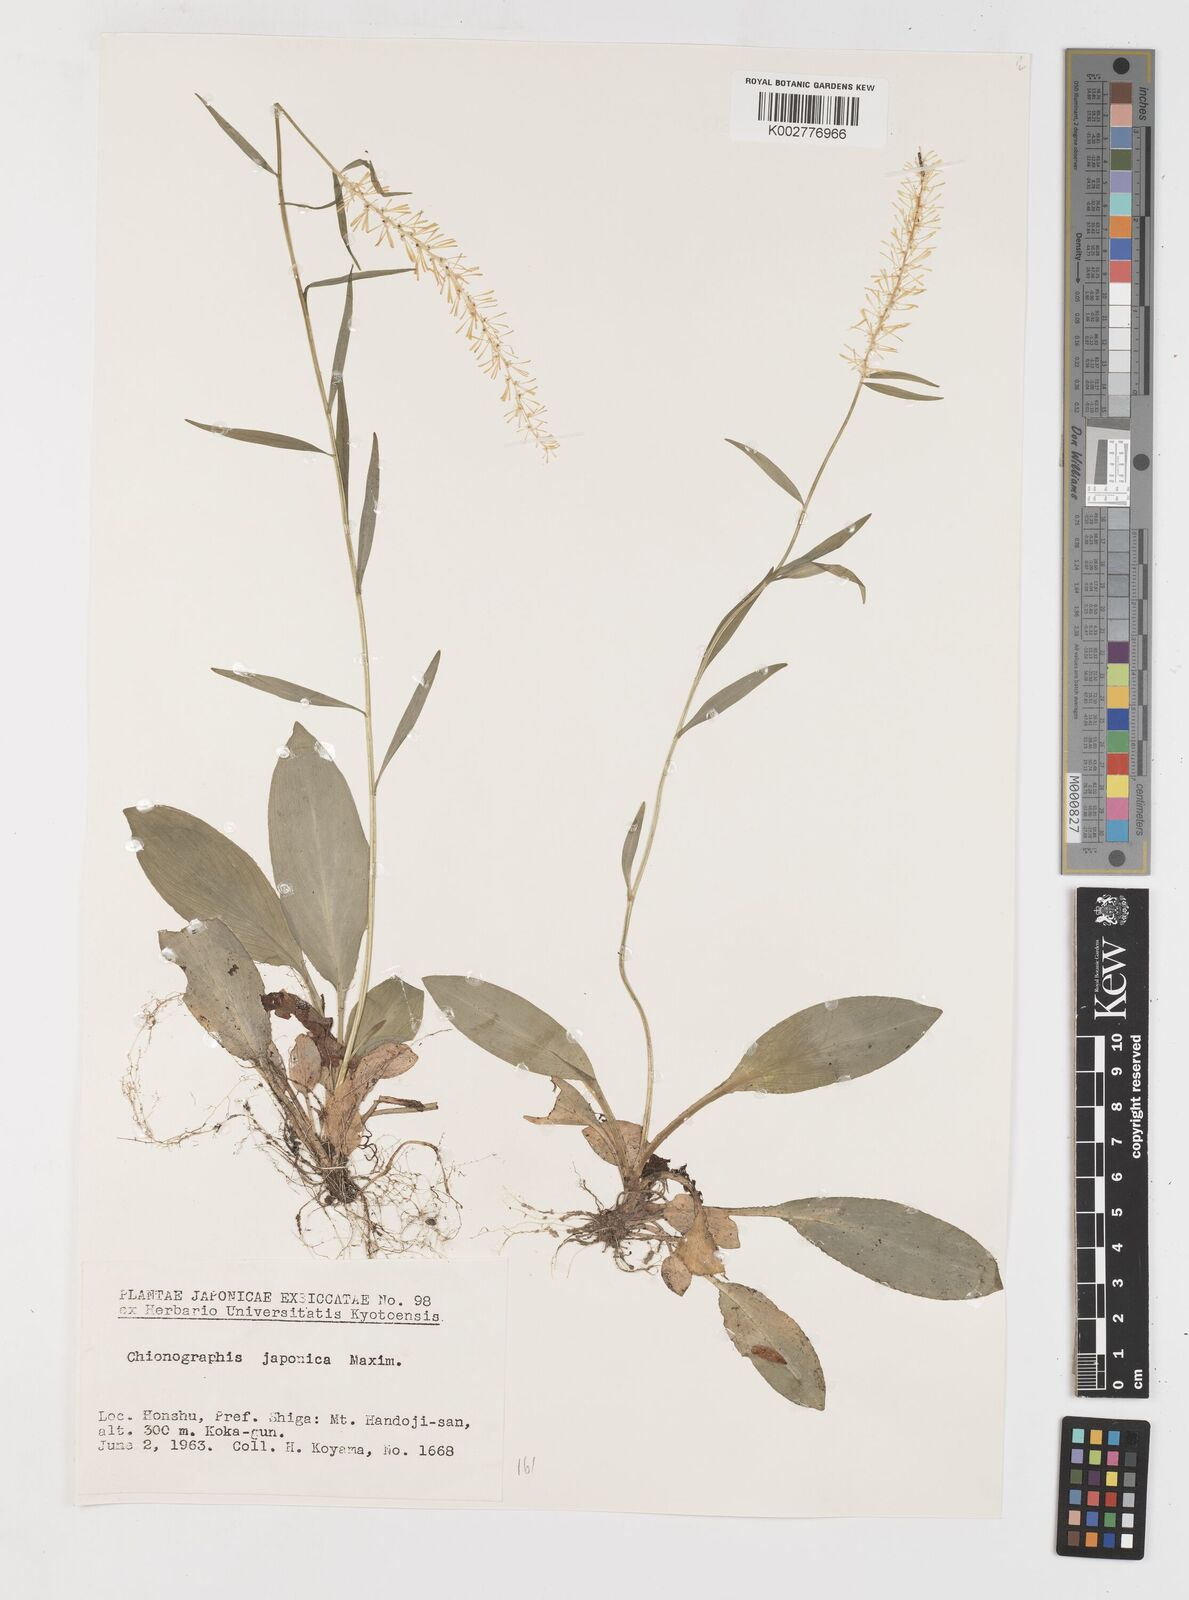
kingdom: Plantae
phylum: Tracheophyta
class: Liliopsida
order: Liliales
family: Melanthiaceae
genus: Chamaelirium
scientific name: Chamaelirium japonicum
